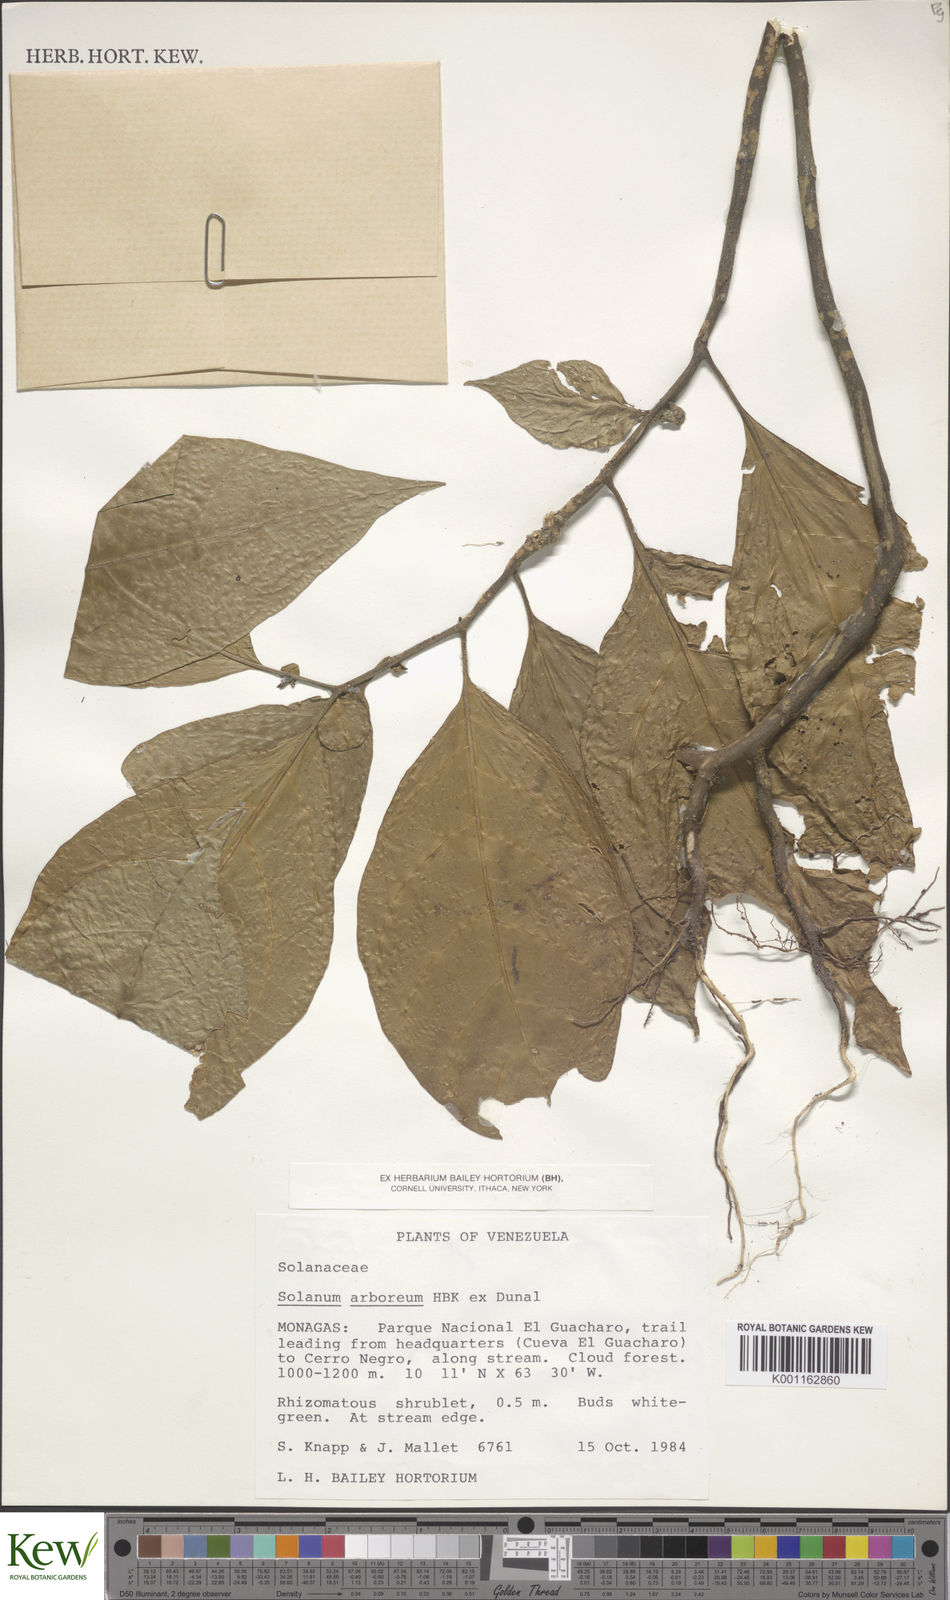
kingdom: Plantae
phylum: Tracheophyta
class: Magnoliopsida
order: Solanales
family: Solanaceae
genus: Solanum
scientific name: Solanum arboreum
